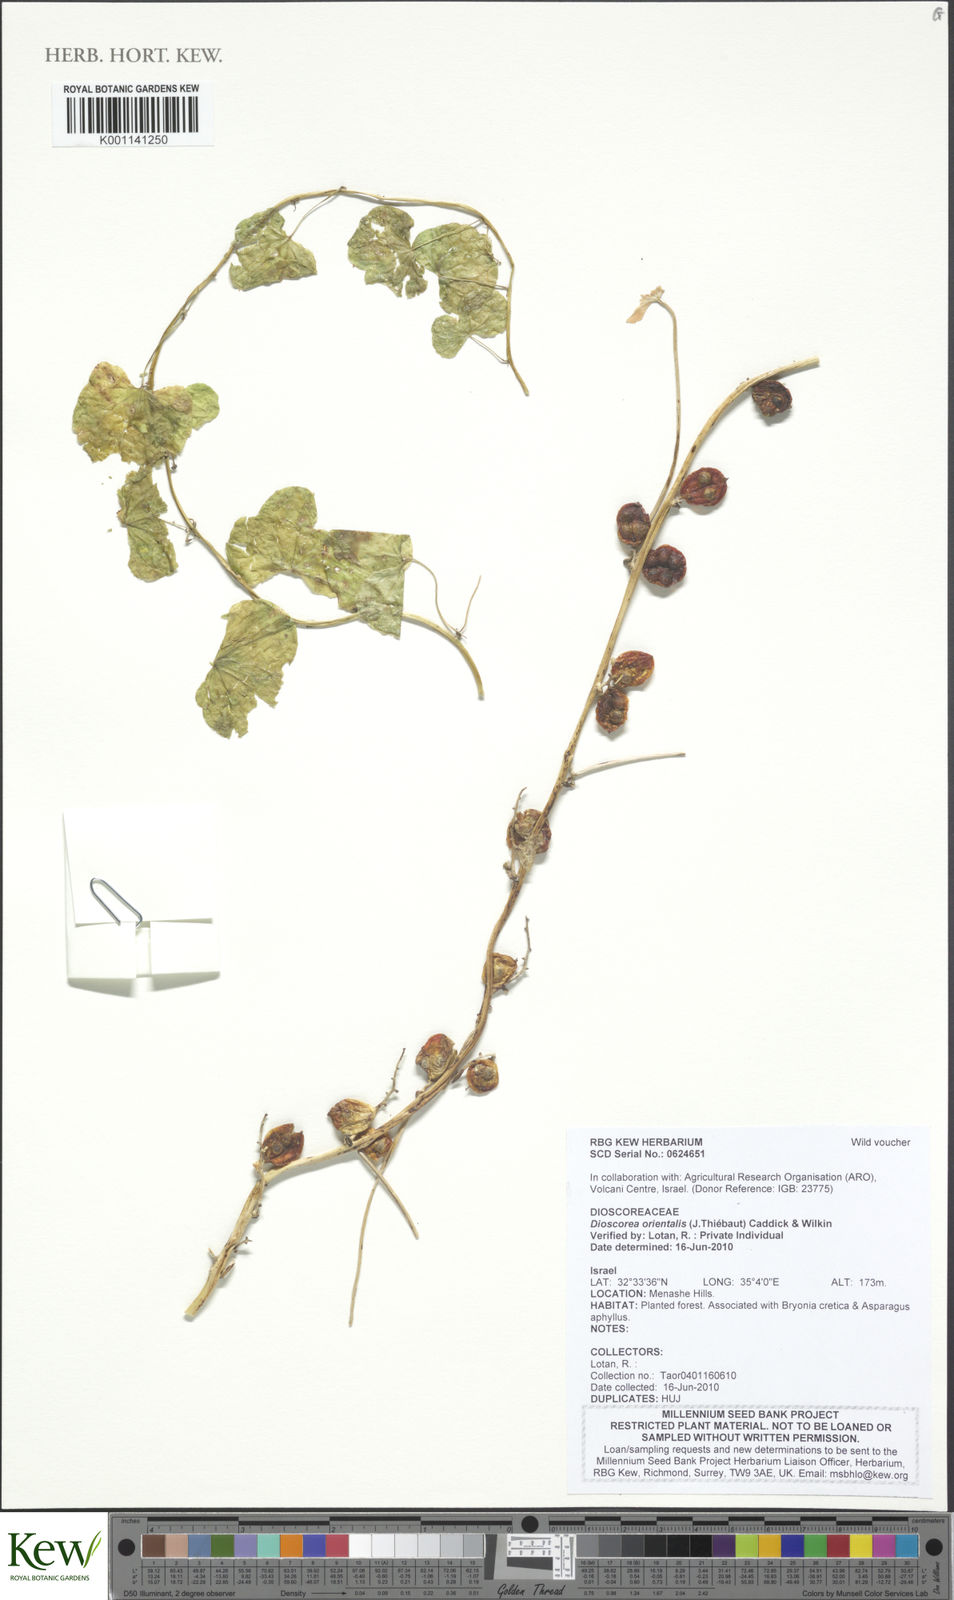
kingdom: Plantae
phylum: Tracheophyta
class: Liliopsida
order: Dioscoreales
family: Dioscoreaceae
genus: Dioscorea
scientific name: Dioscorea
